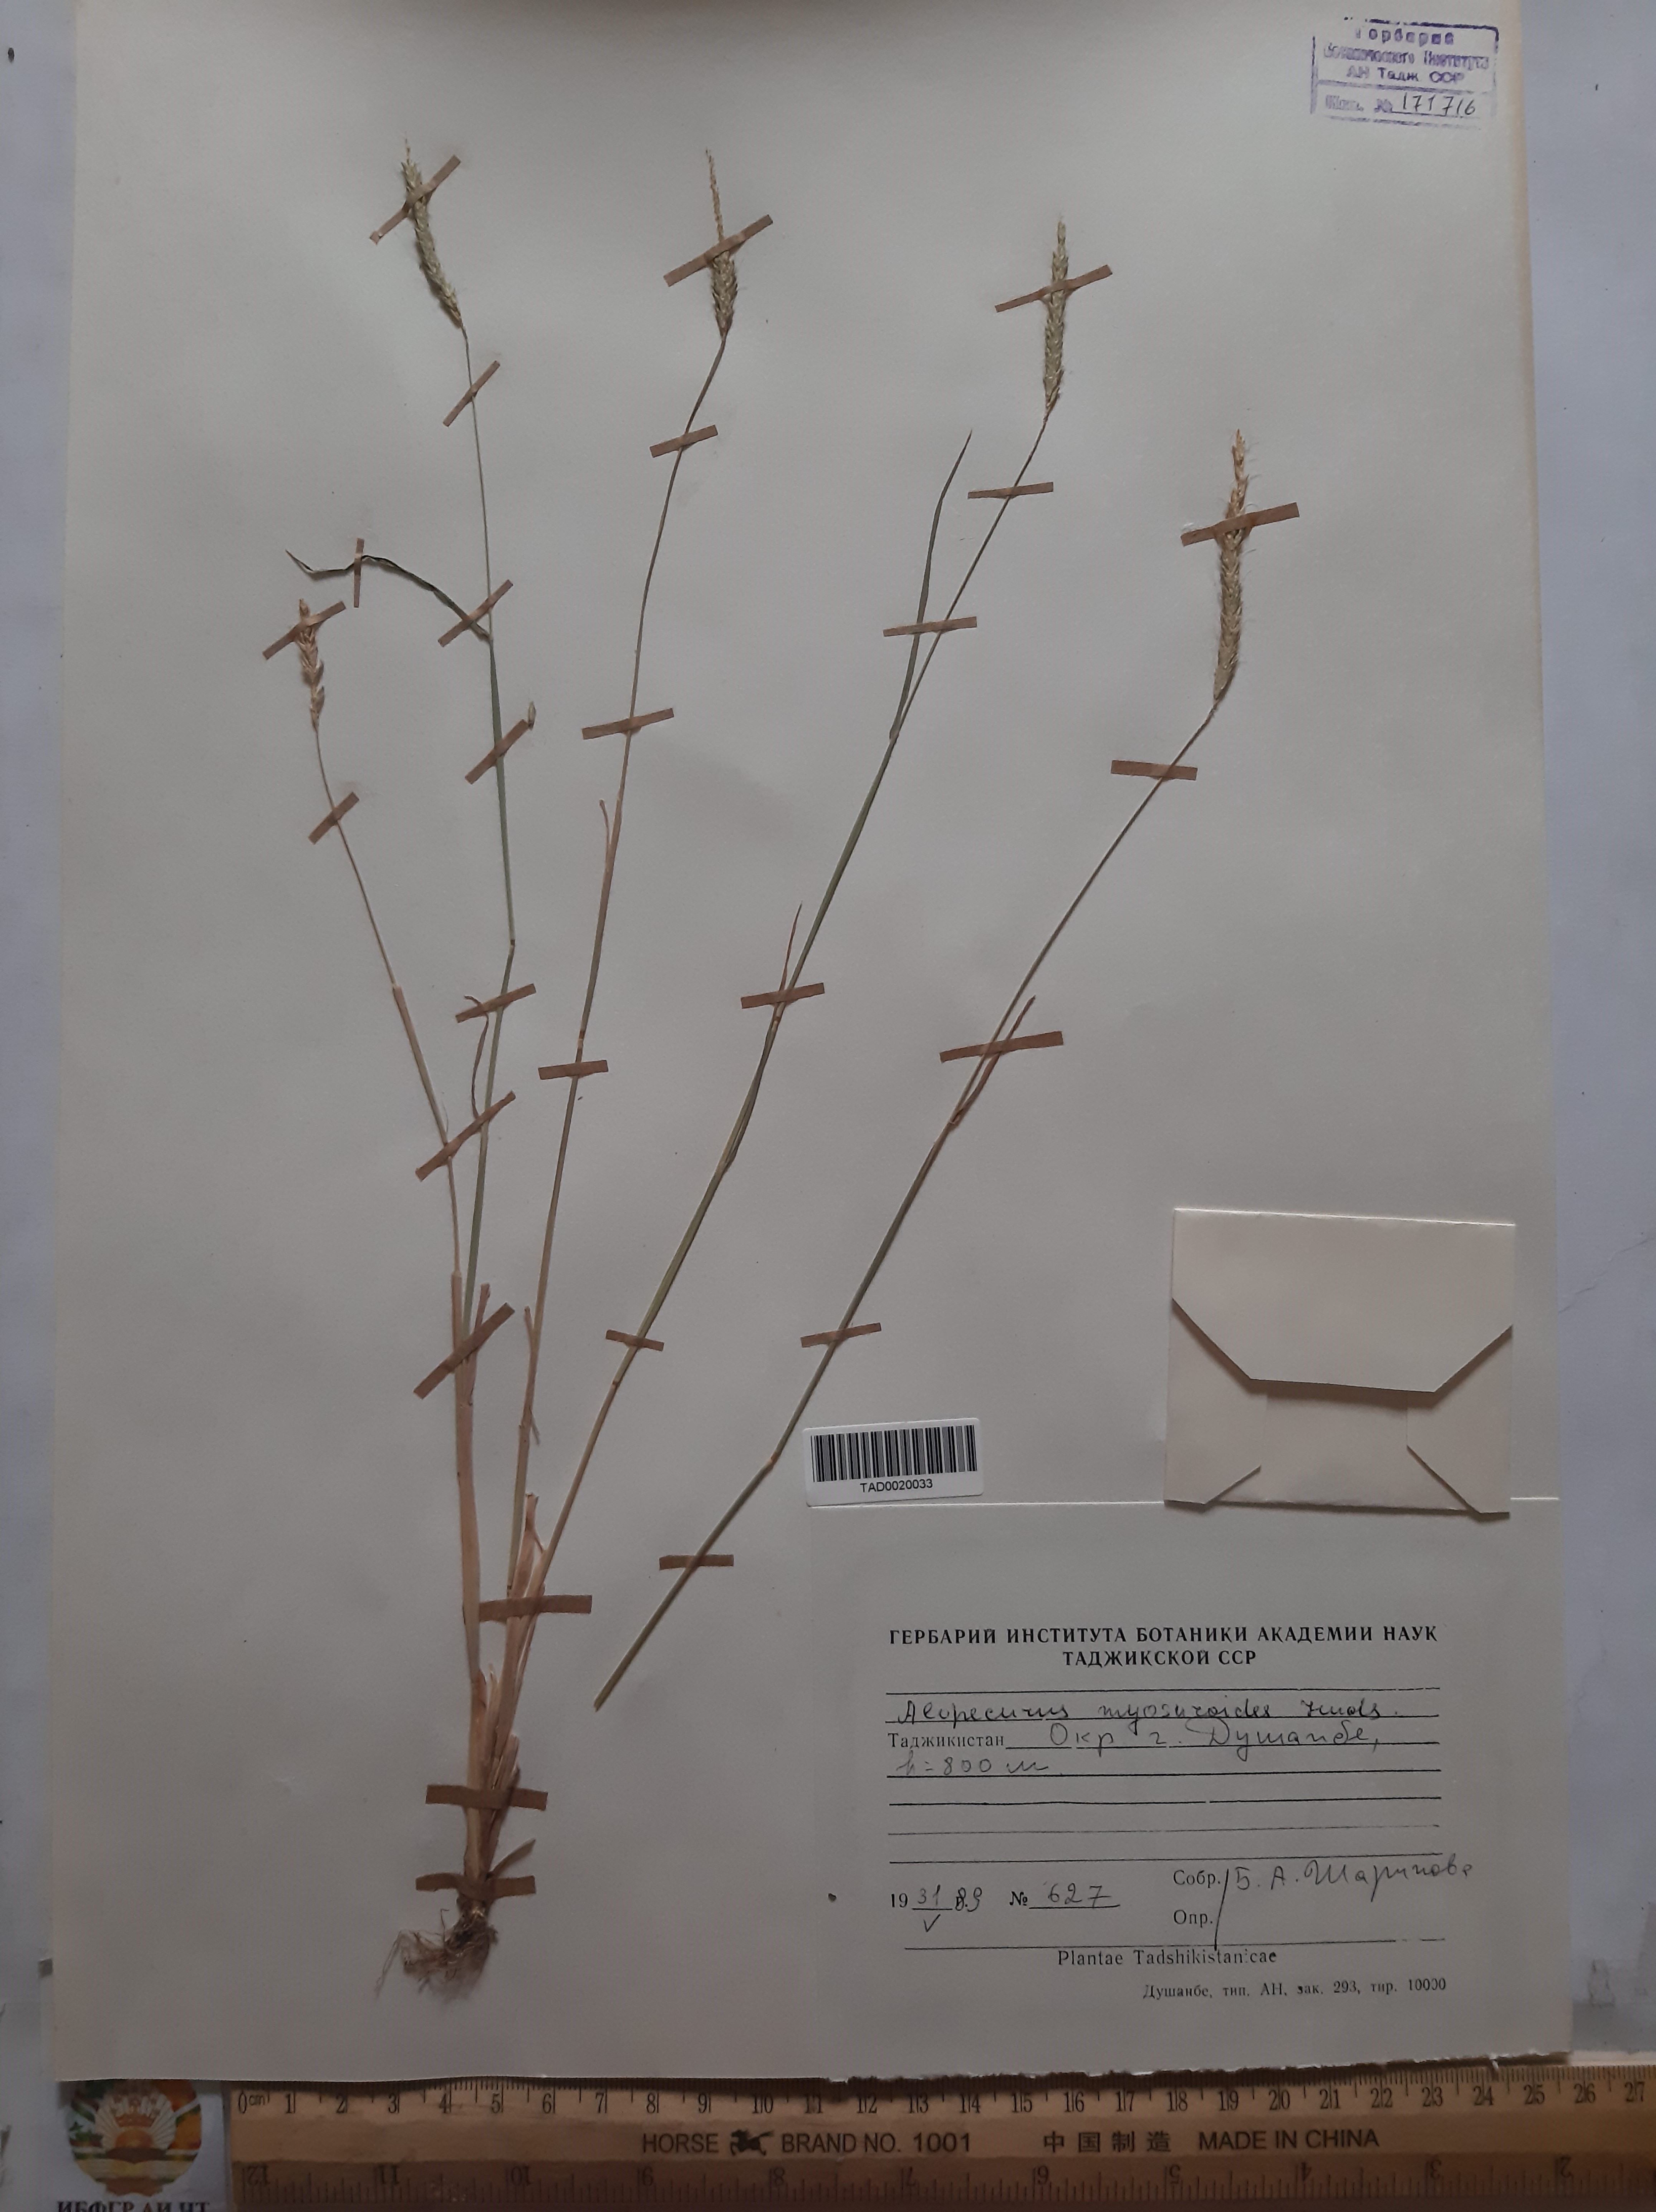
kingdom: Plantae
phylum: Tracheophyta
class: Liliopsida
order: Poales
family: Poaceae
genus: Alopecurus
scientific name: Alopecurus mucronatus
